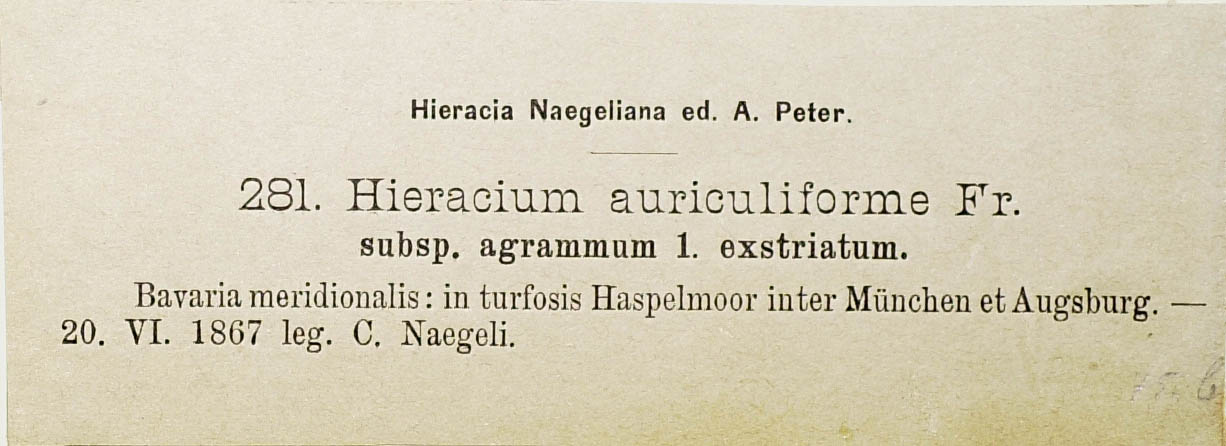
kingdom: Plantae
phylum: Tracheophyta
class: Magnoliopsida
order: Asterales
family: Asteraceae
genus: Pilosella
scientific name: Pilosella auriculiformis
